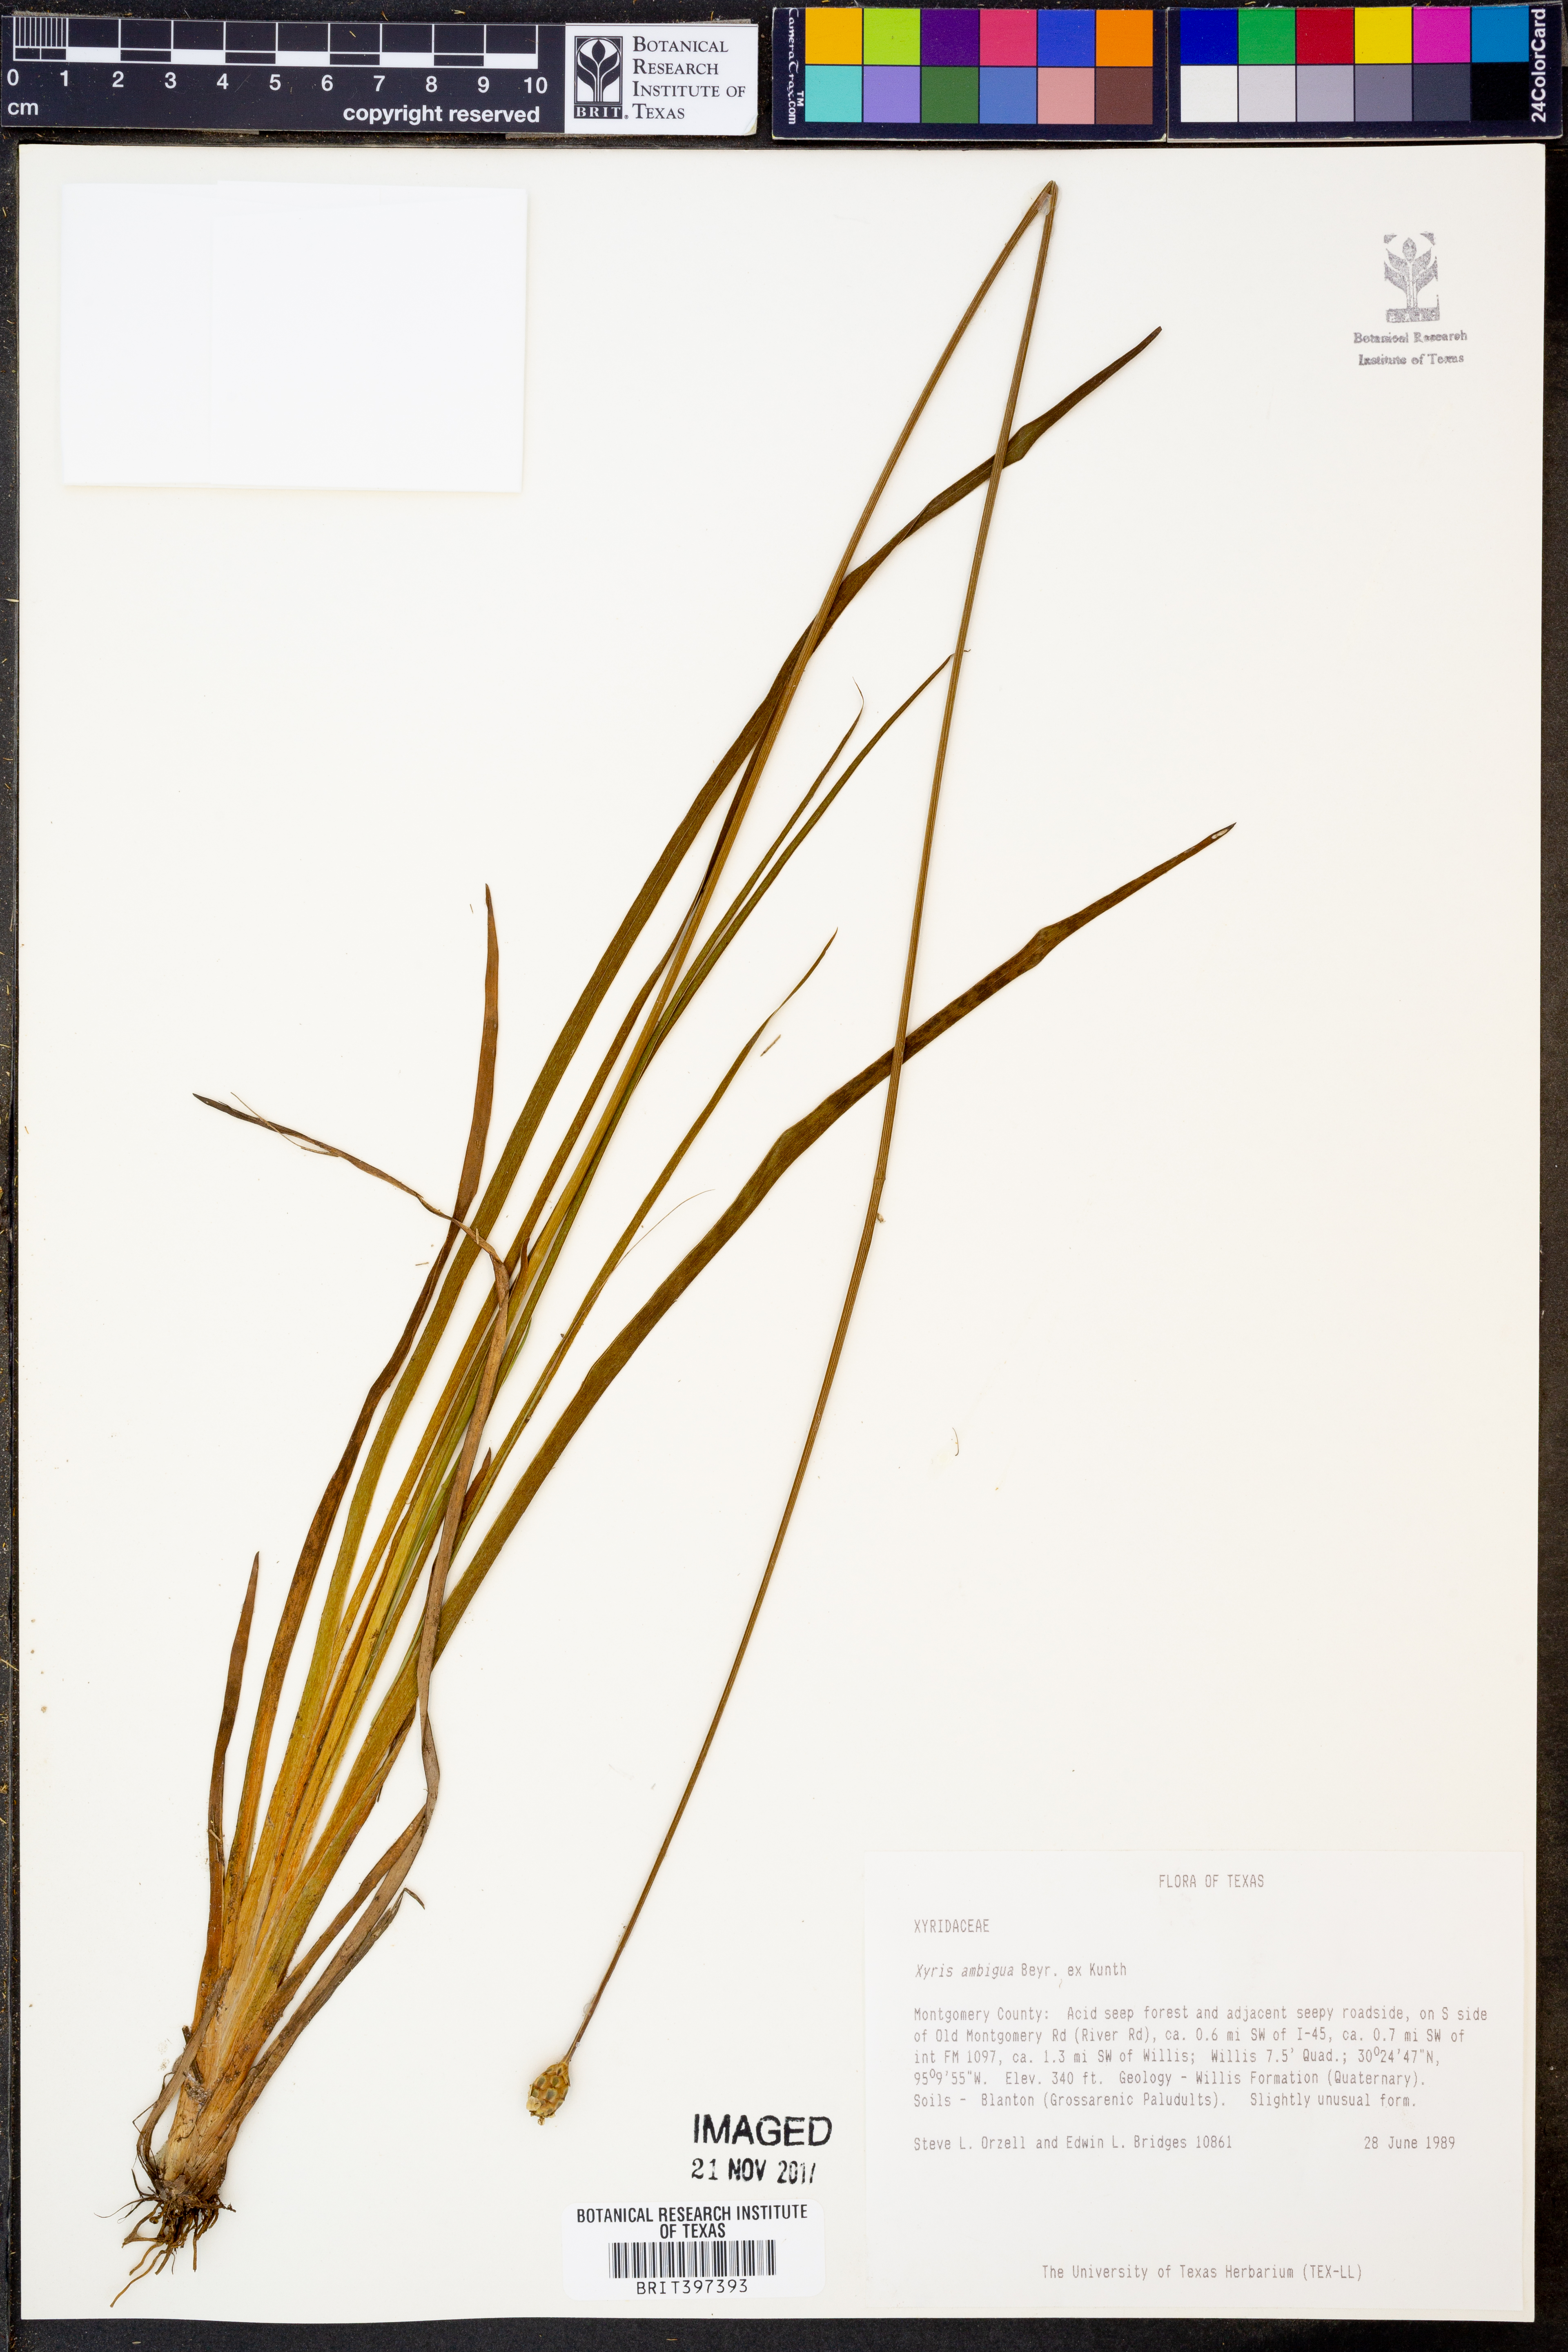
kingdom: Plantae
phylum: Tracheophyta
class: Liliopsida
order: Poales
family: Xyridaceae
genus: Xyris
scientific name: Xyris ambigua
